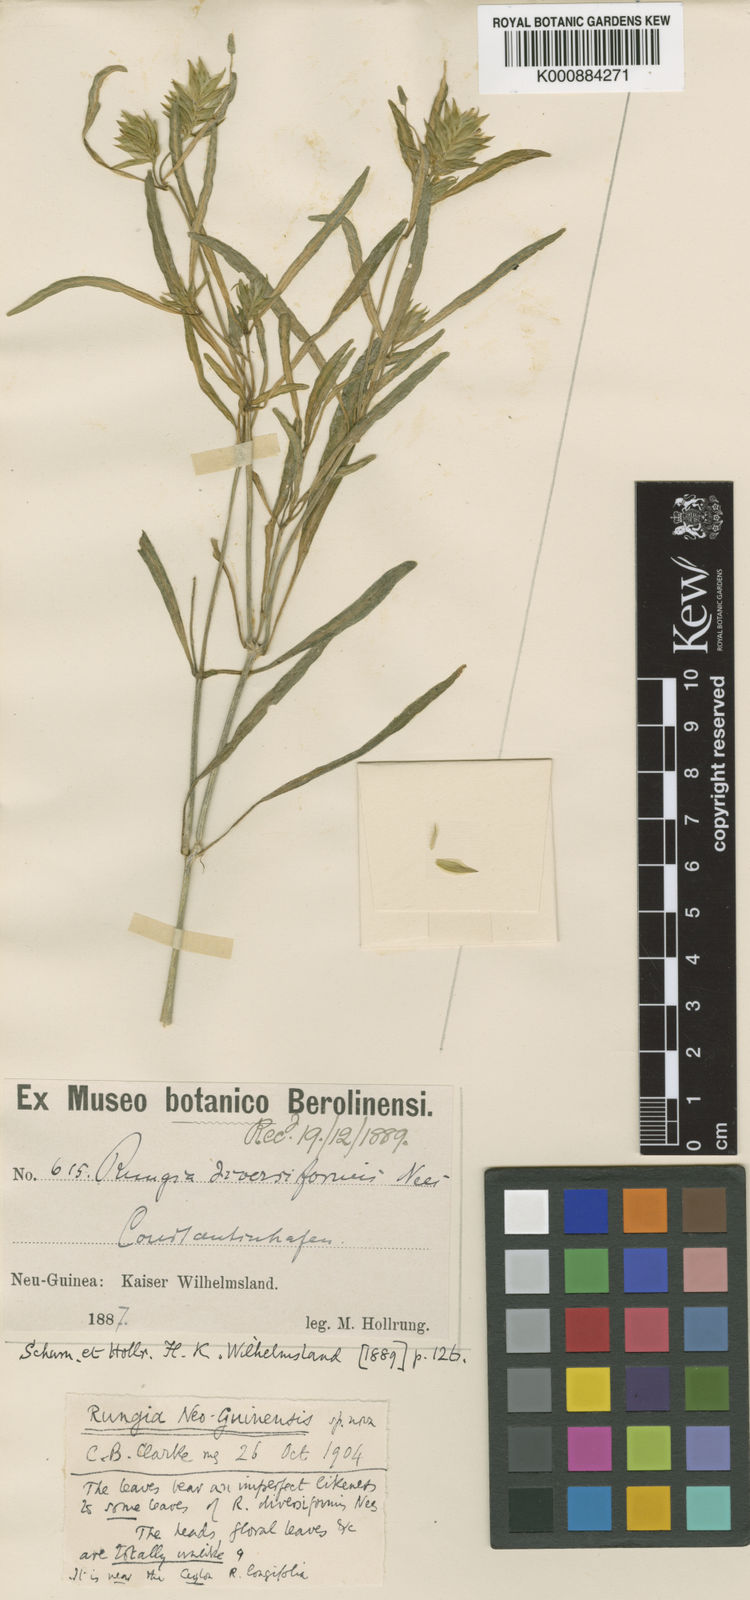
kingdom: Plantae
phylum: Tracheophyta
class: Magnoliopsida
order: Lamiales
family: Acanthaceae
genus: Justicia
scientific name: Justicia
